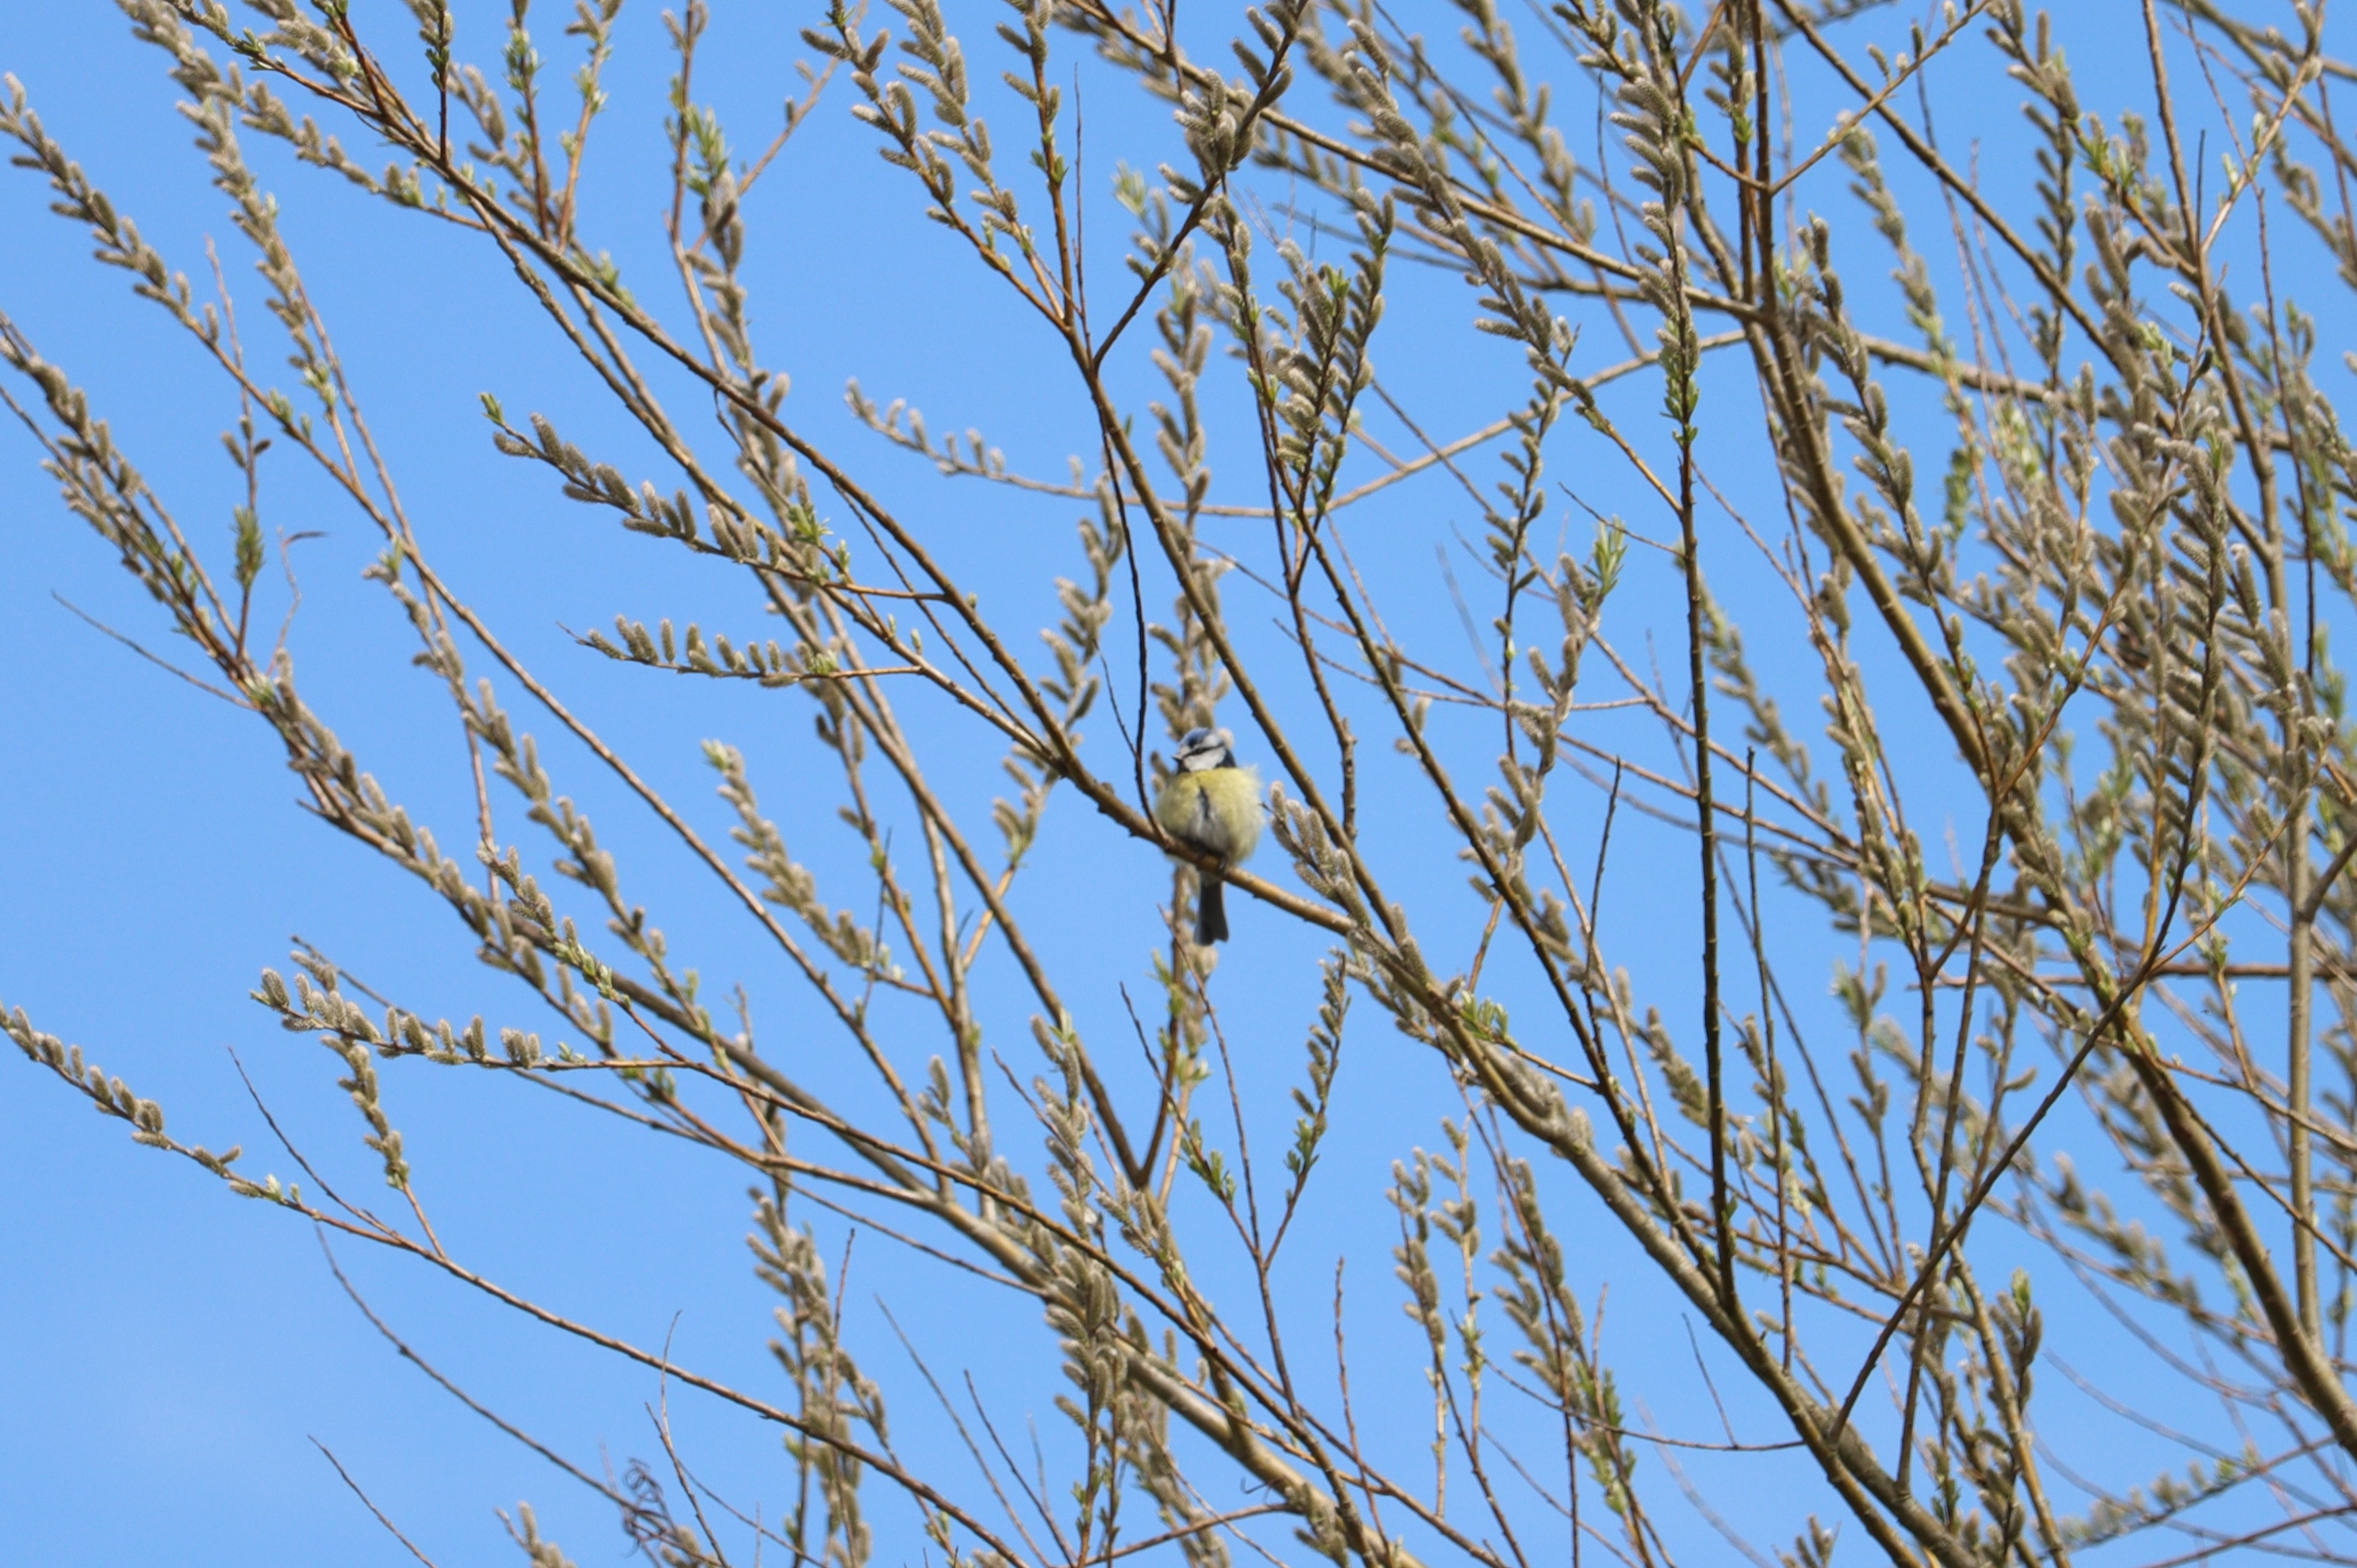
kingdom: Animalia
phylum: Chordata
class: Aves
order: Passeriformes
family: Paridae
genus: Cyanistes
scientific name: Cyanistes caeruleus
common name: Blåmejse
